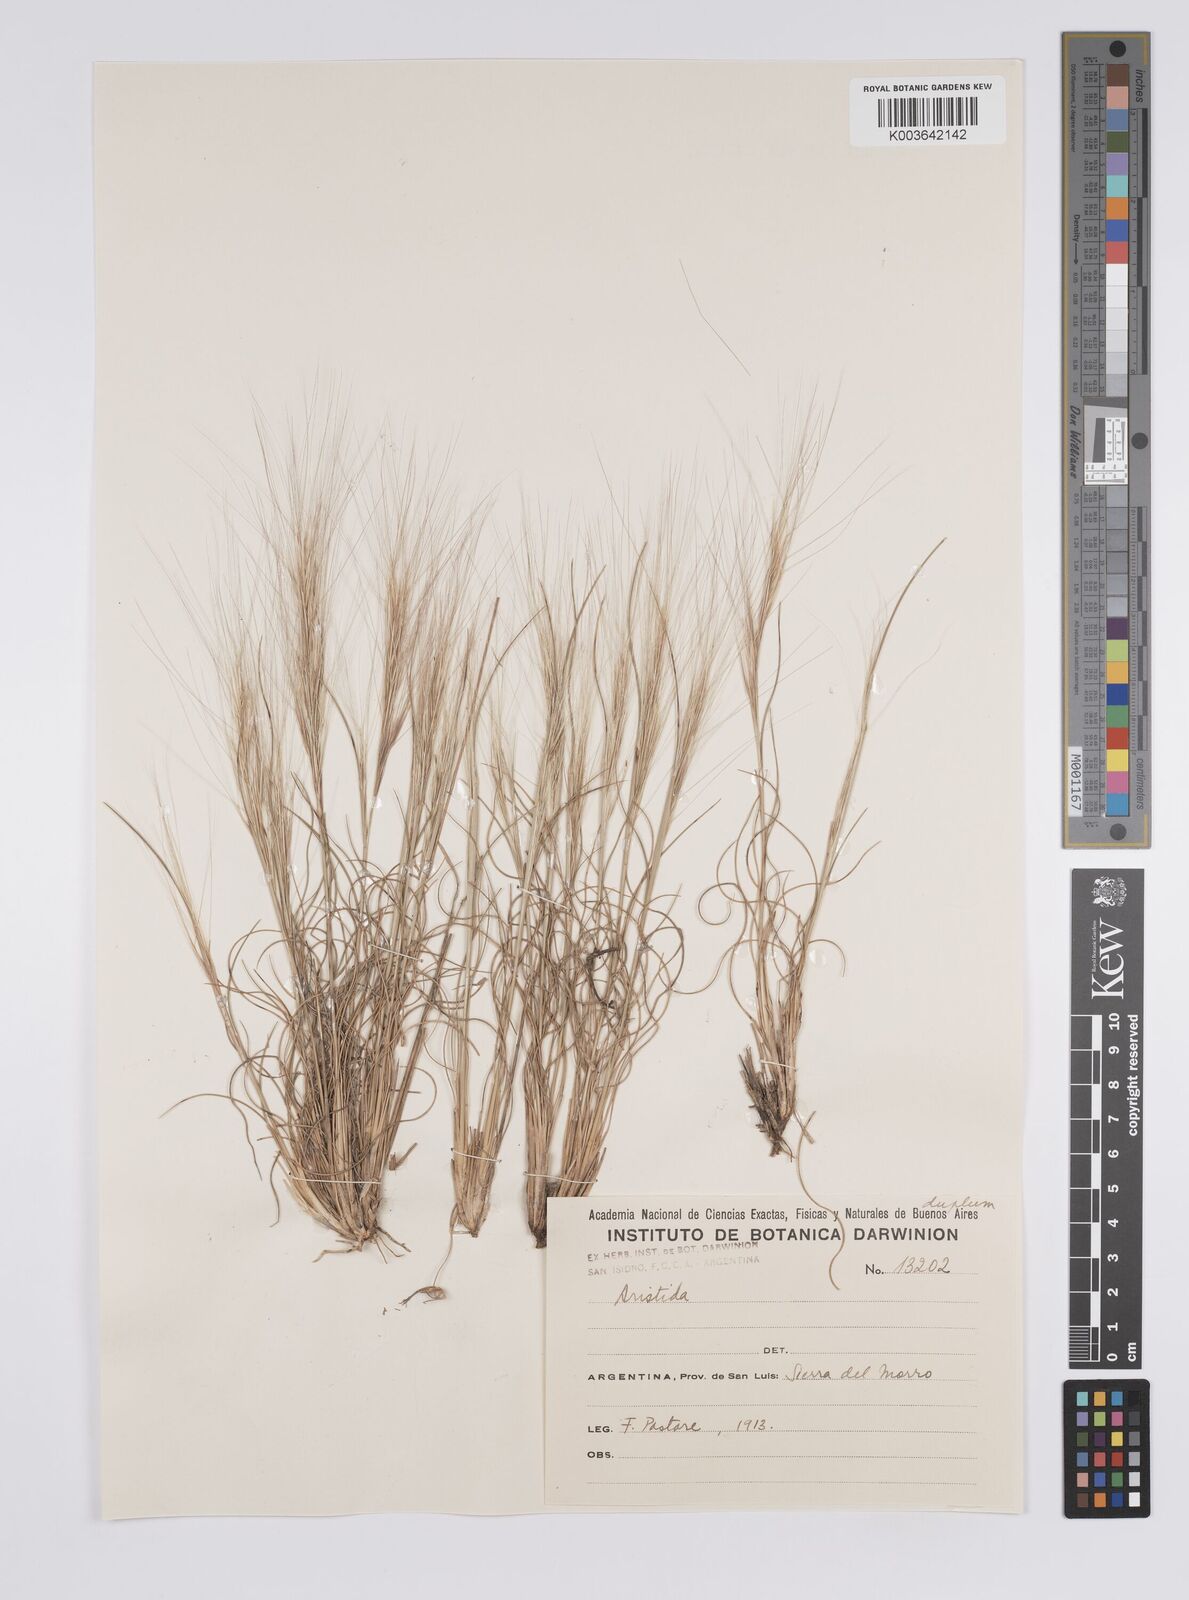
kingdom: Plantae
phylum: Tracheophyta
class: Liliopsida
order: Poales
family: Poaceae
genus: Aristida
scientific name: Aristida
